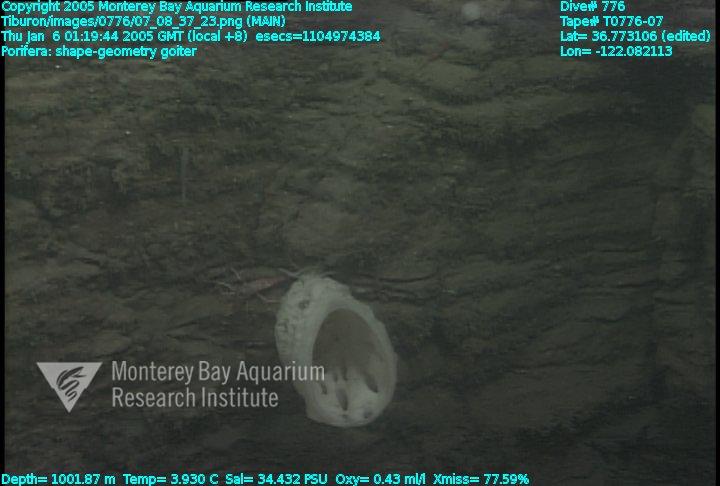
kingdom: Animalia
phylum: Porifera
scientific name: Porifera
